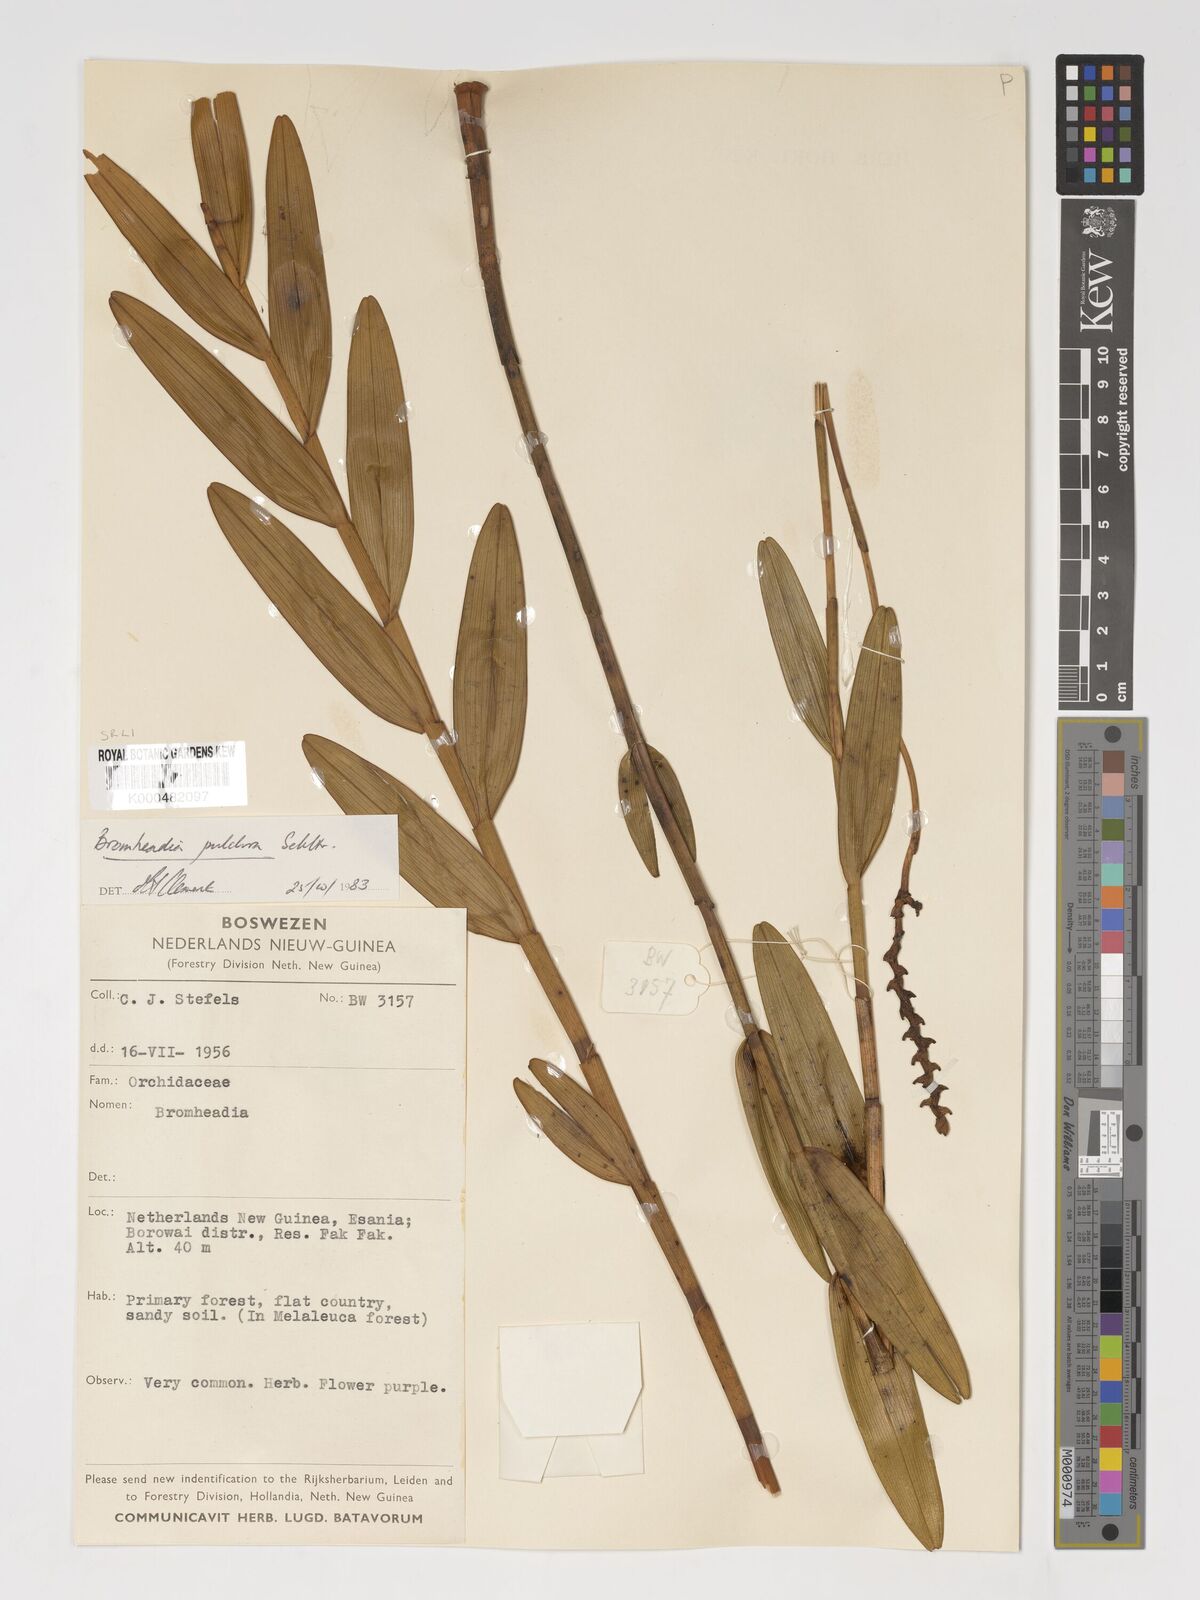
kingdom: Plantae
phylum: Tracheophyta
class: Liliopsida
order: Asparagales
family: Orchidaceae
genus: Bromheadia
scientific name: Bromheadia finlaysoniana
